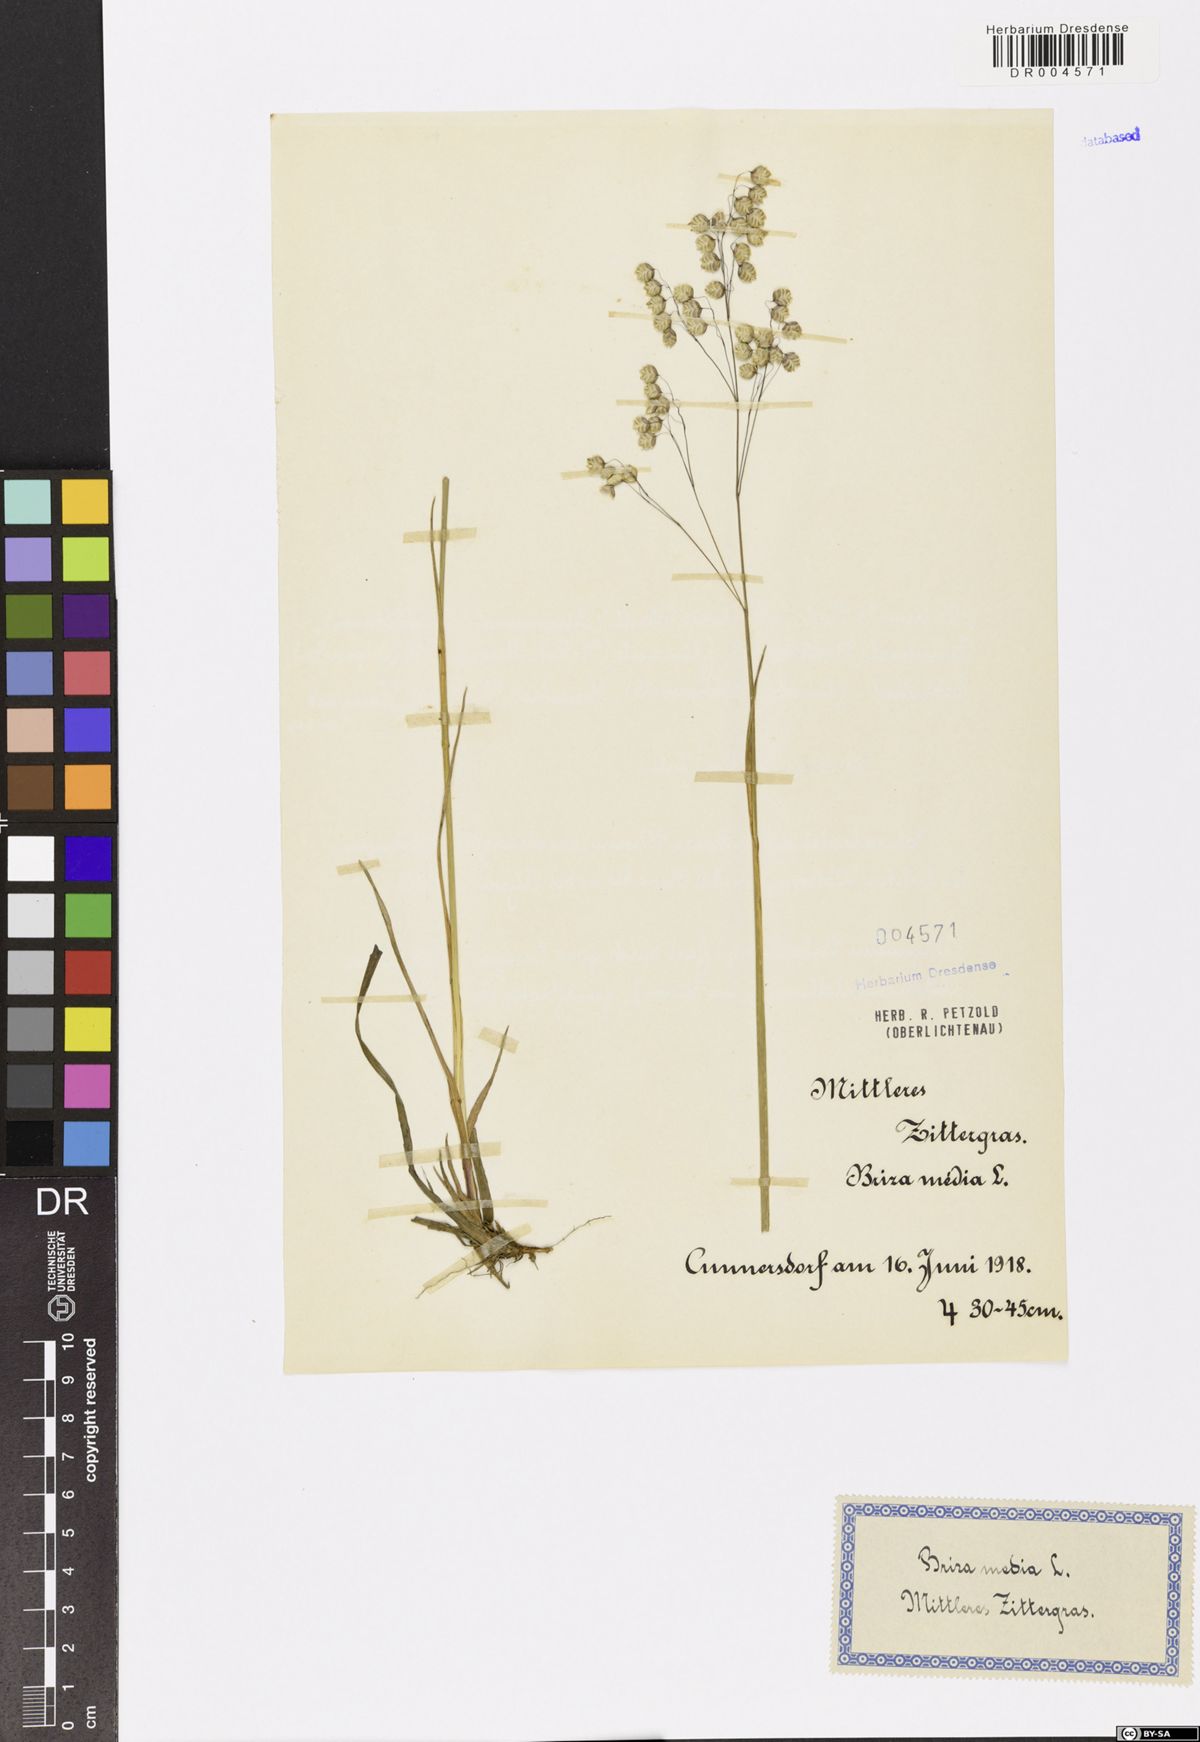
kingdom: Plantae
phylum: Tracheophyta
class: Liliopsida
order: Poales
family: Poaceae
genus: Briza
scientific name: Briza media
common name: Quaking grass
